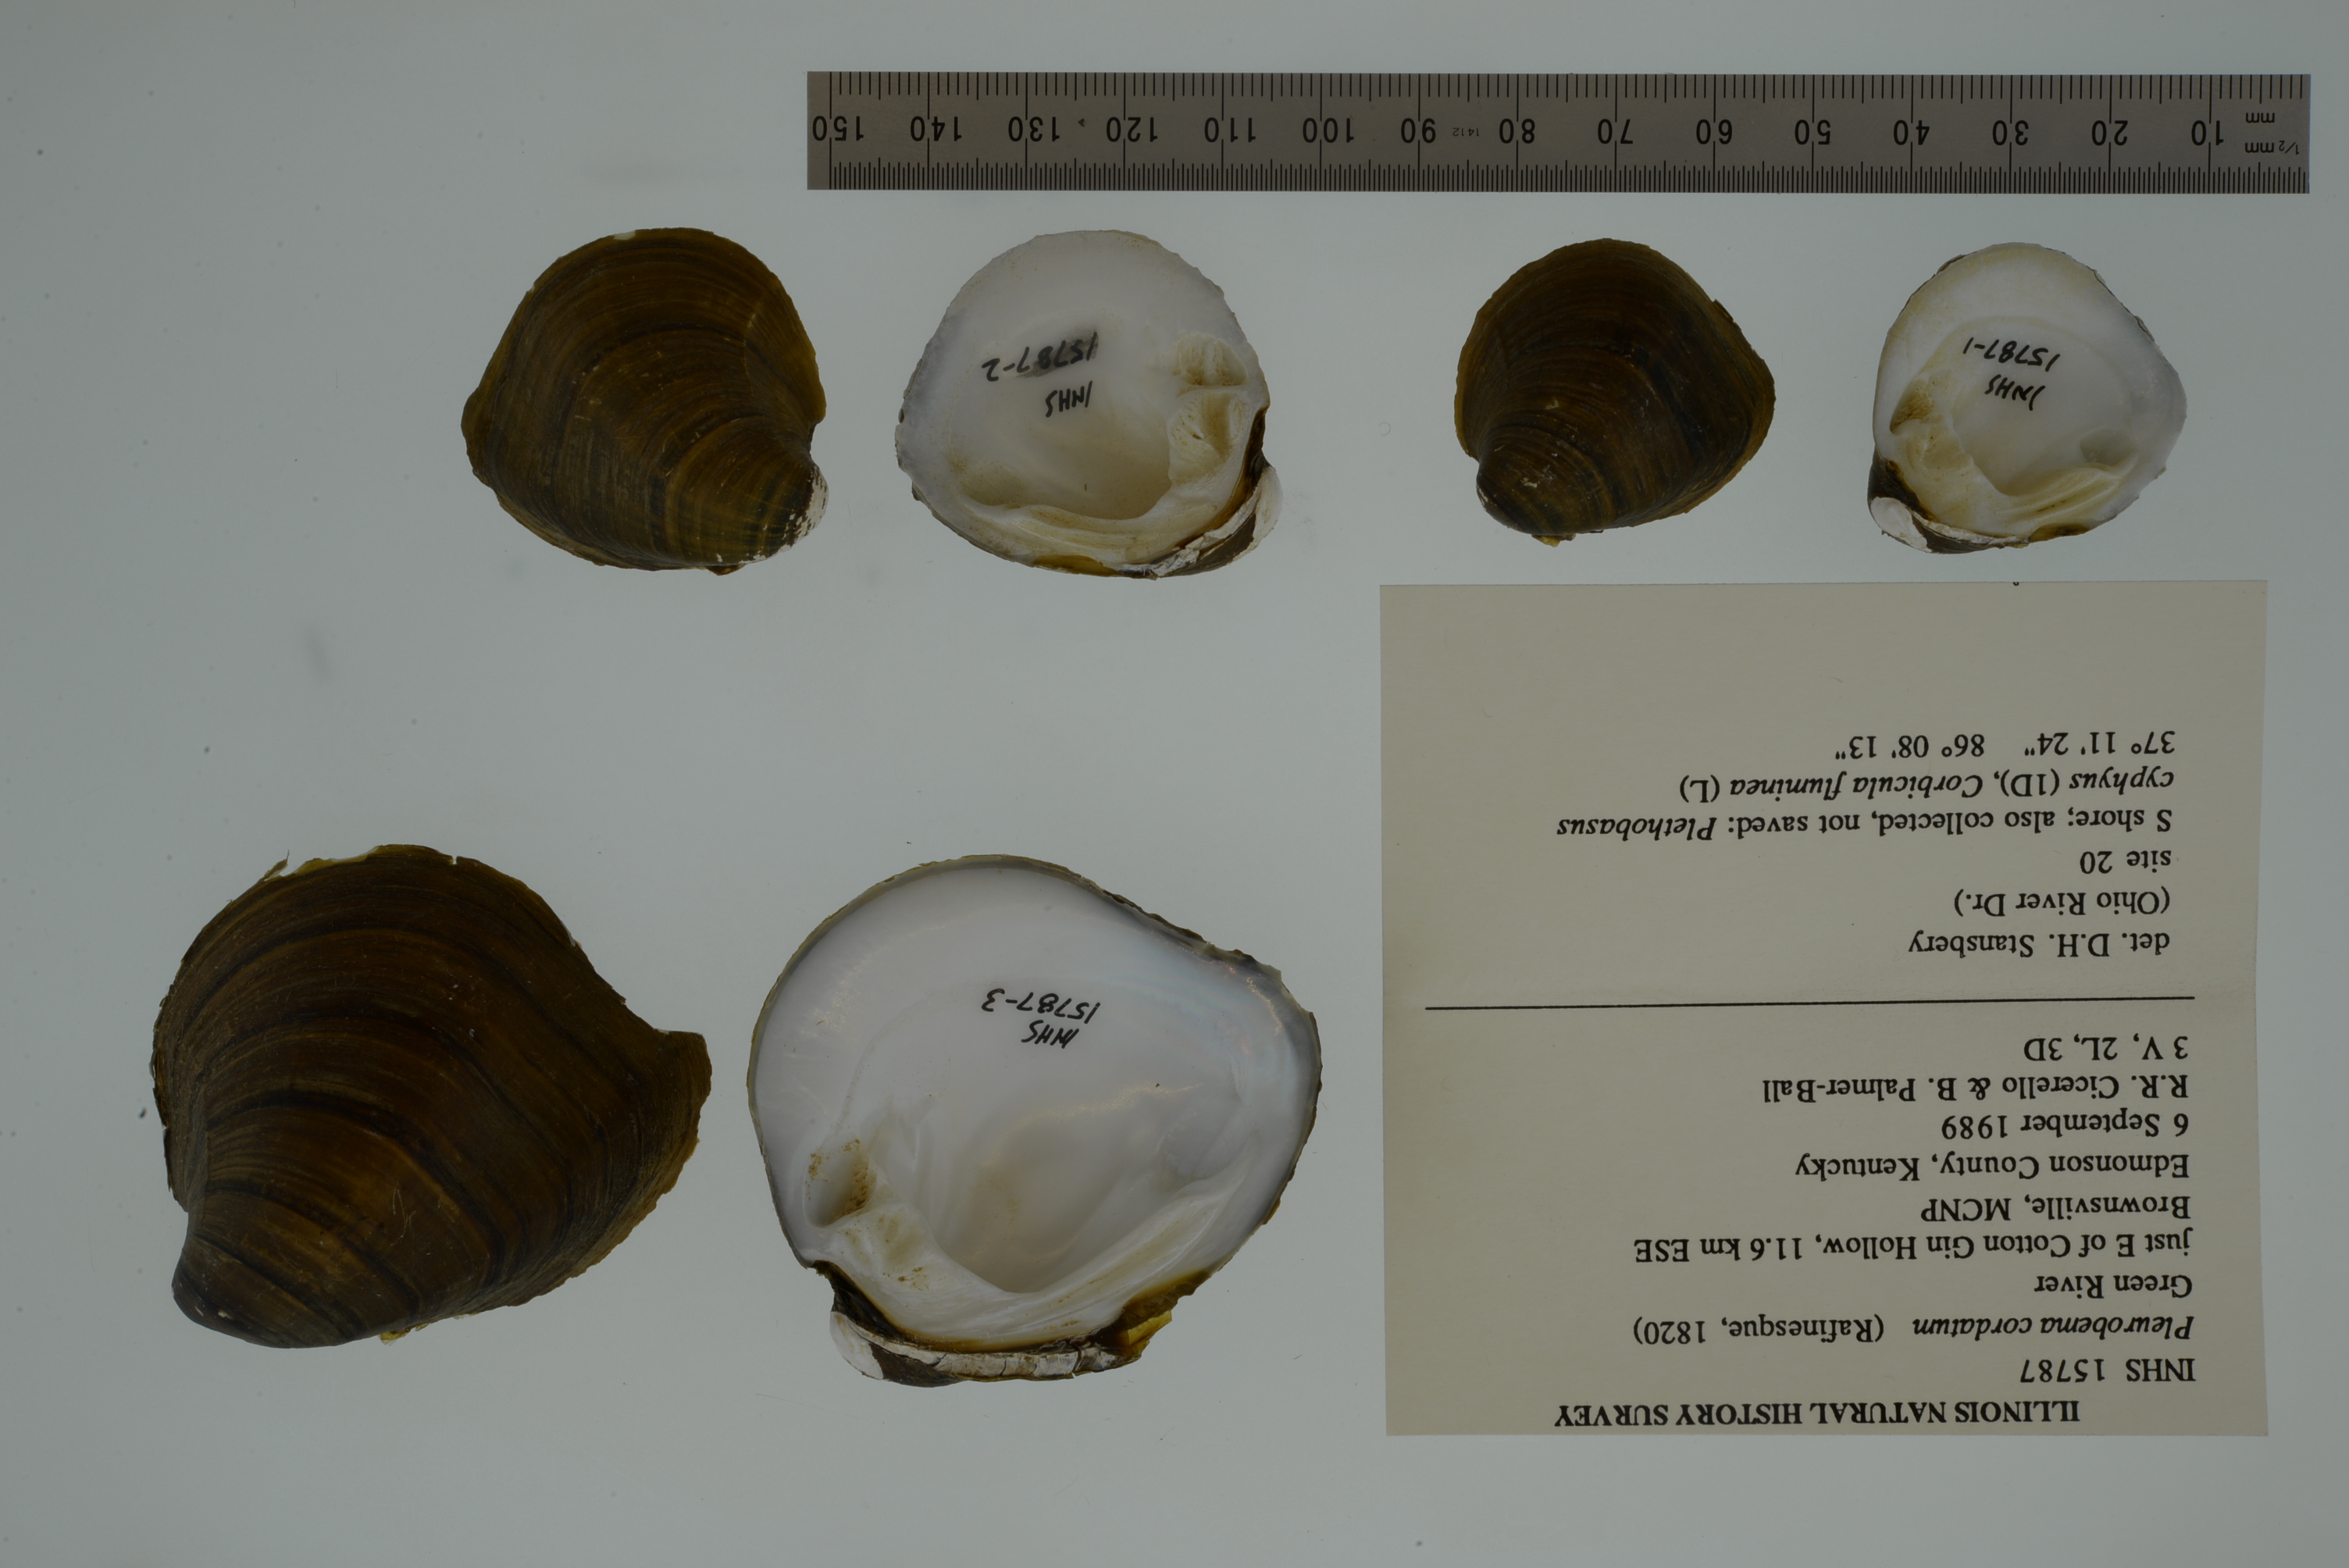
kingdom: Animalia
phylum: Mollusca
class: Bivalvia
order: Unionida
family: Unionidae
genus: Pleurobema
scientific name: Pleurobema cordatum
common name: Ohio pigtoe
